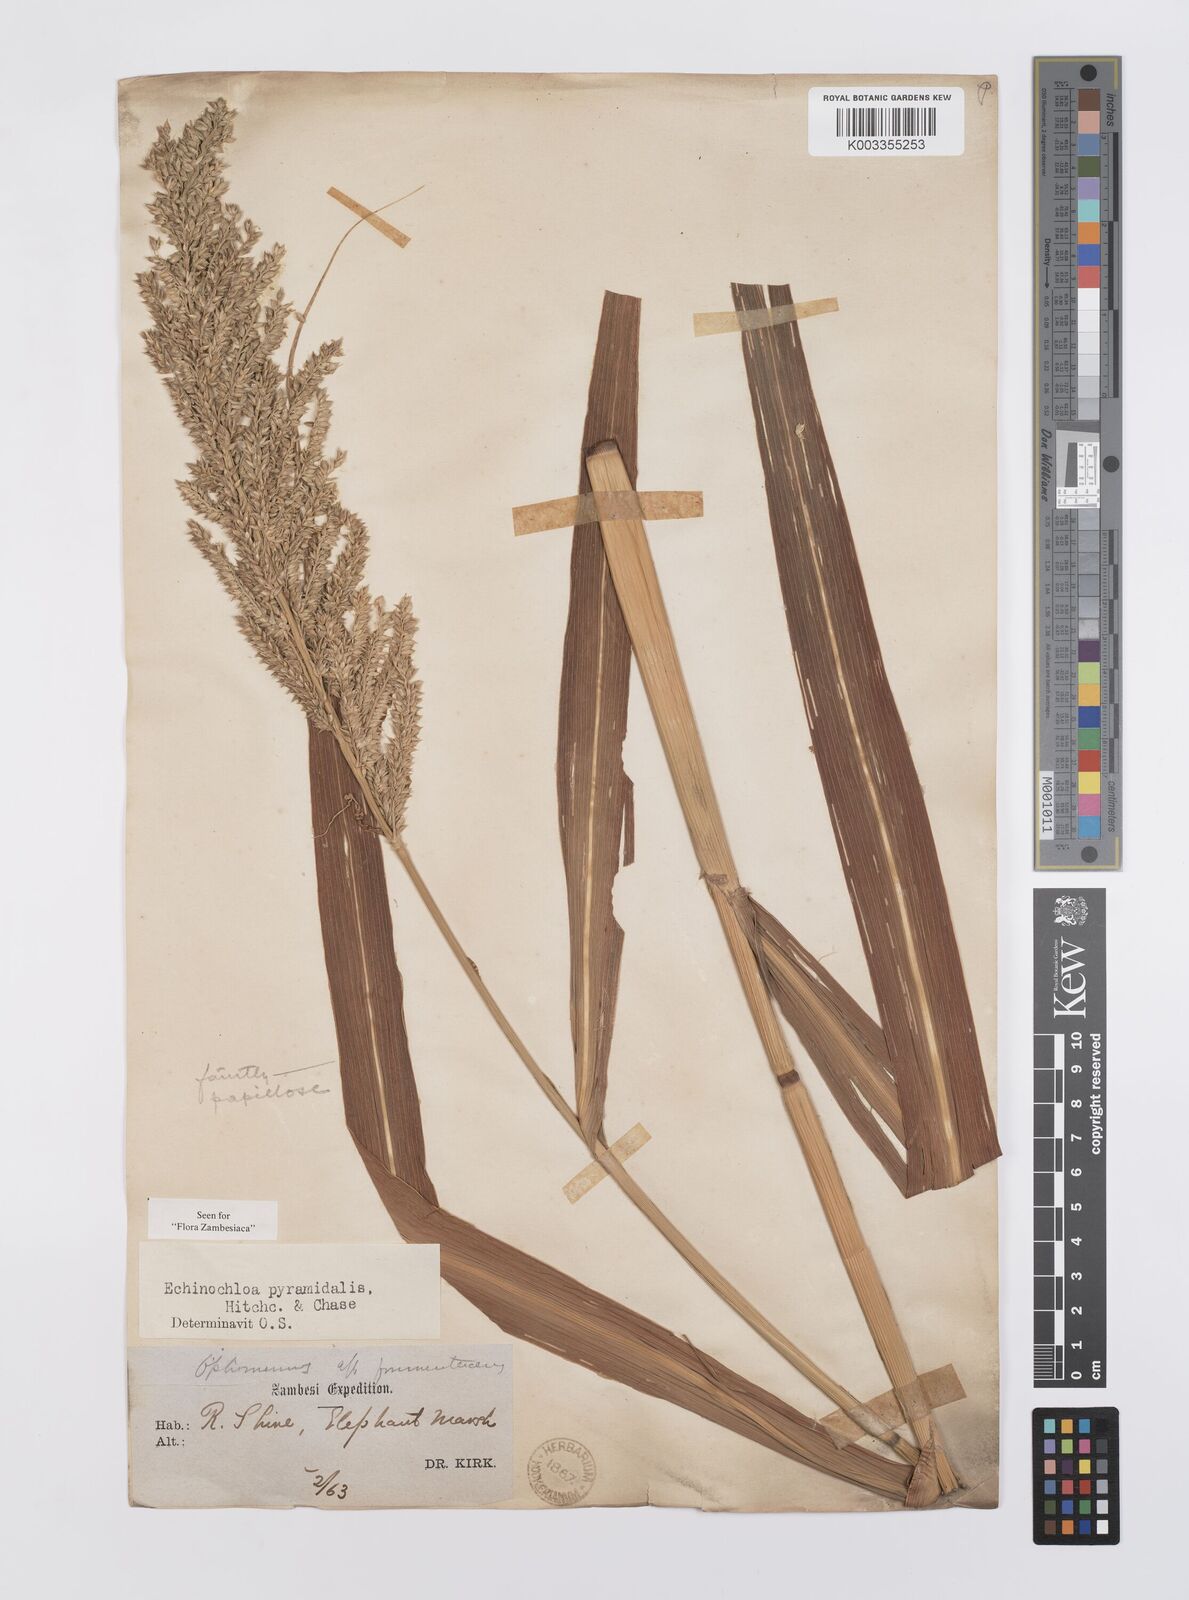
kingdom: Plantae
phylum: Tracheophyta
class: Liliopsida
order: Poales
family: Poaceae
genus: Echinochloa
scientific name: Echinochloa pyramidalis
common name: Antelope grass
